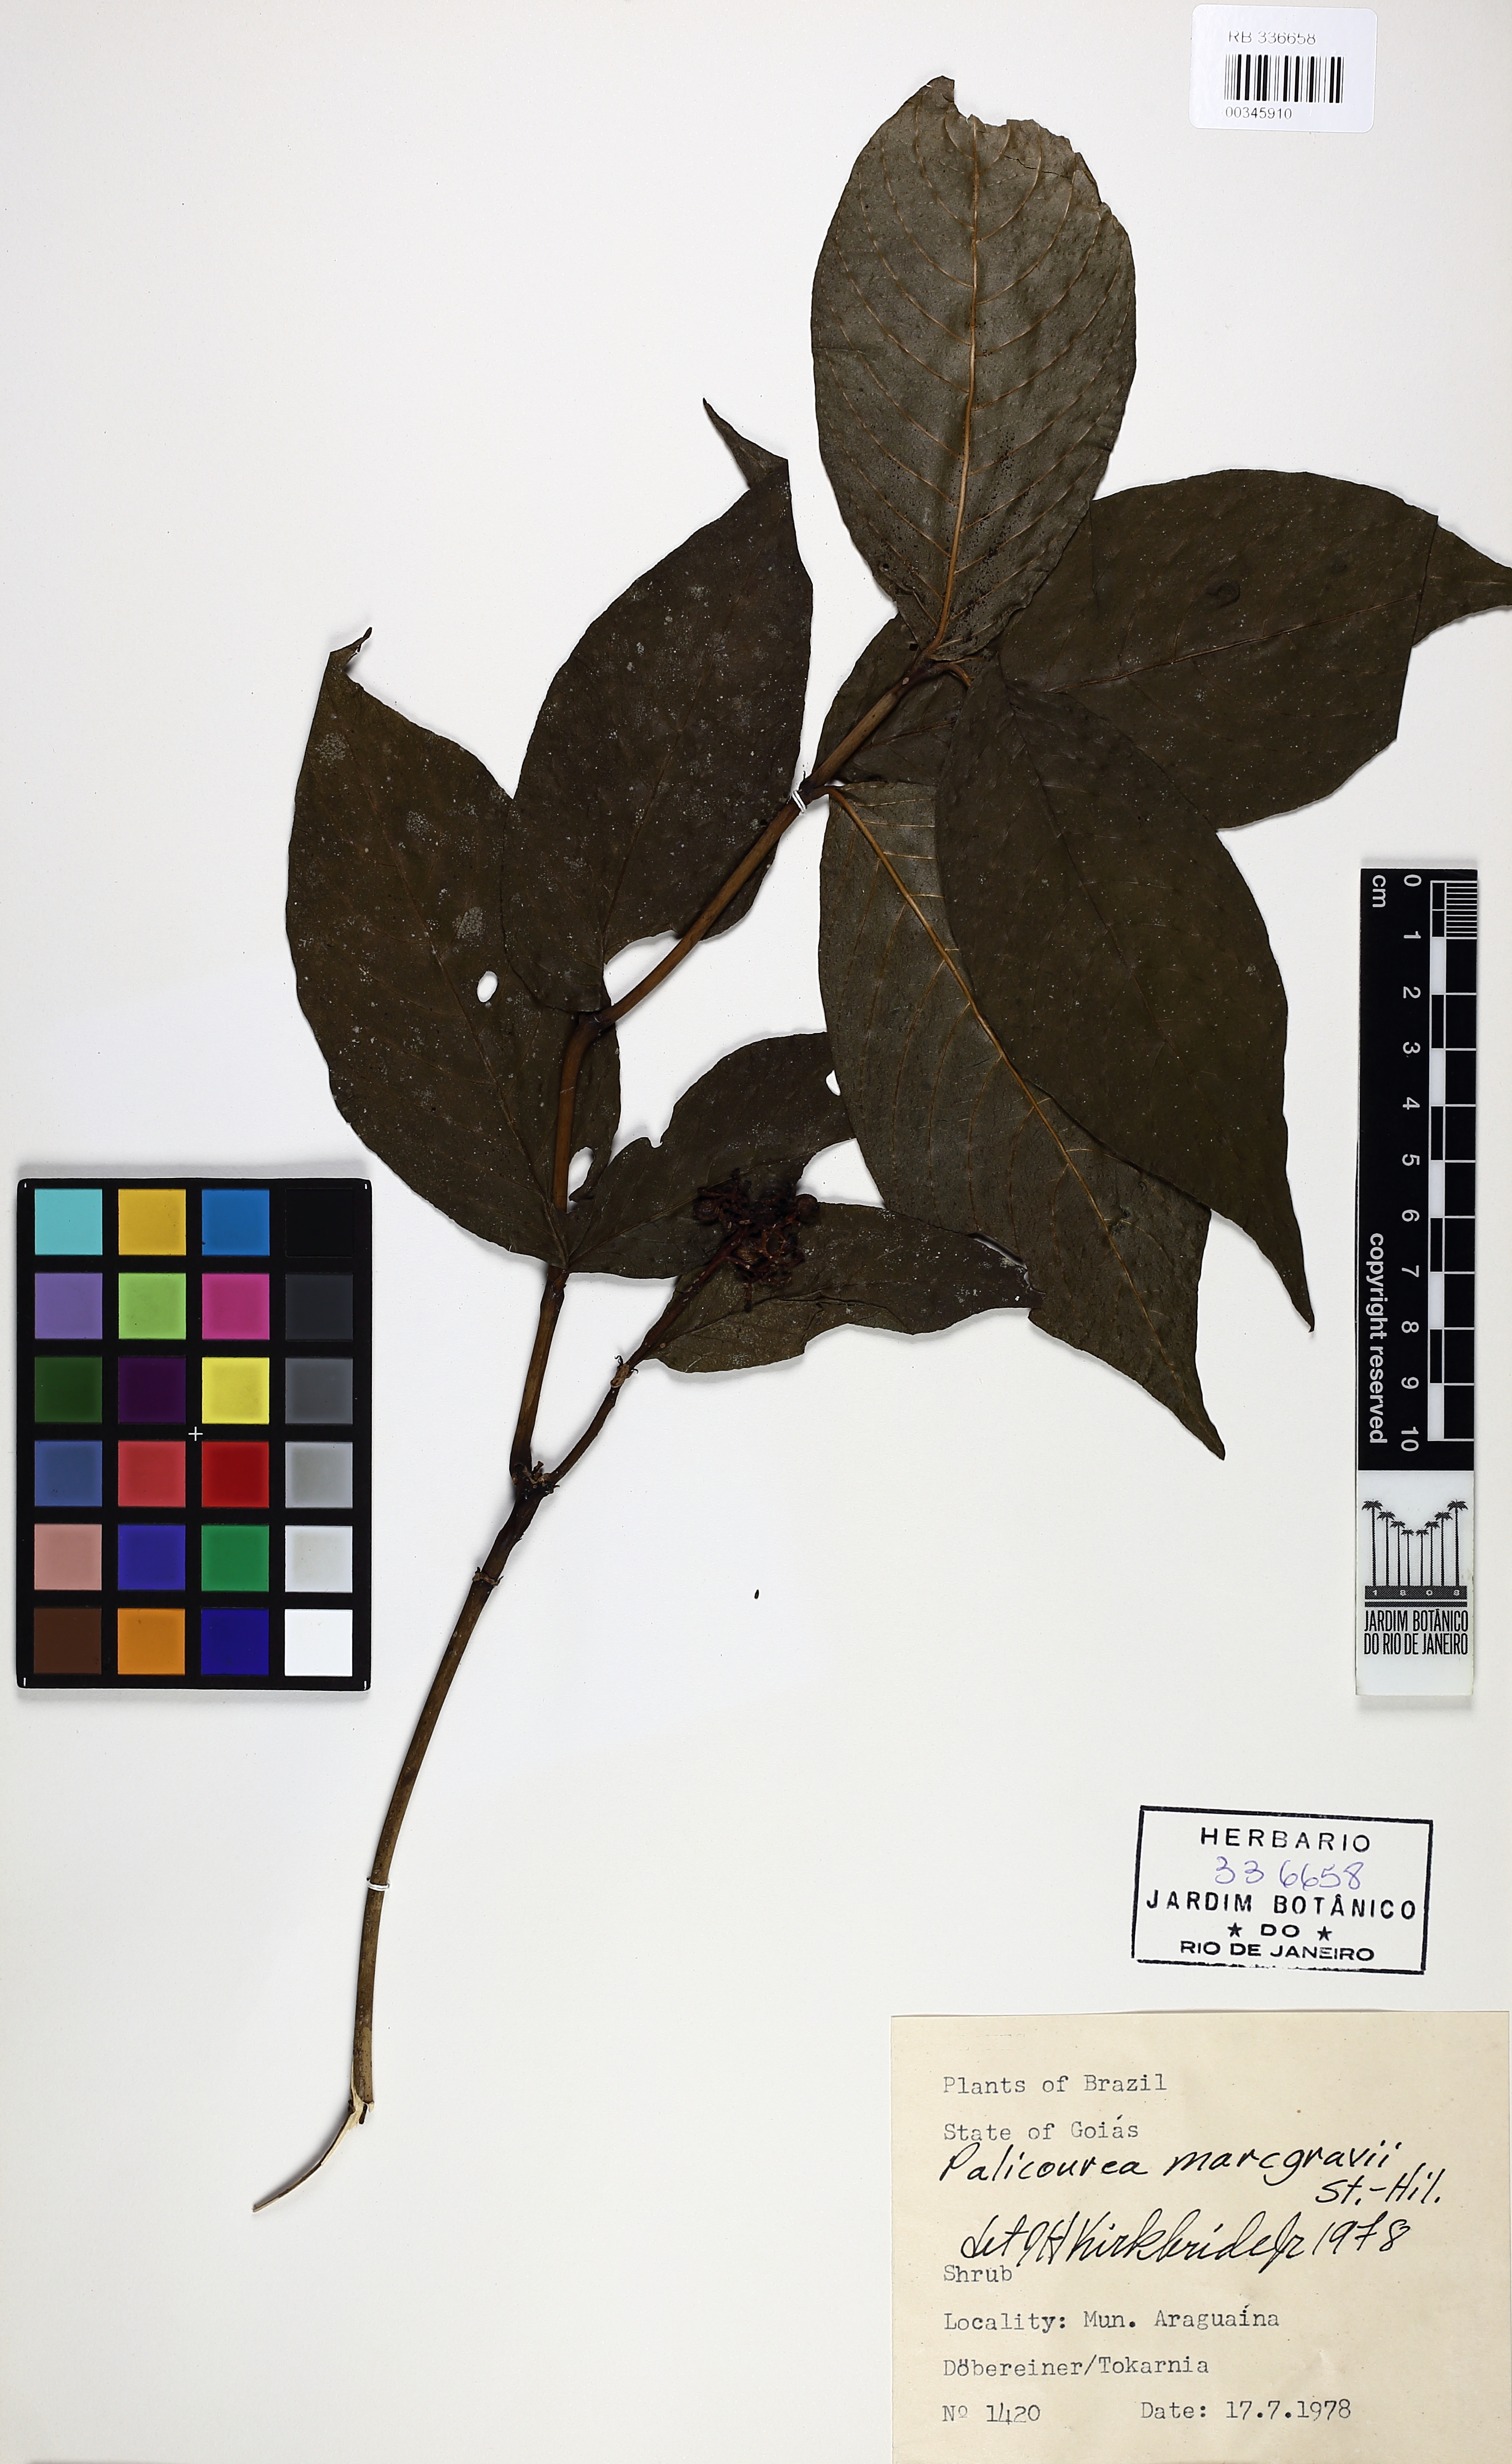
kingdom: Plantae
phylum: Tracheophyta
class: Magnoliopsida
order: Gentianales
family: Rubiaceae
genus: Palicourea
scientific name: Palicourea marcgravii
